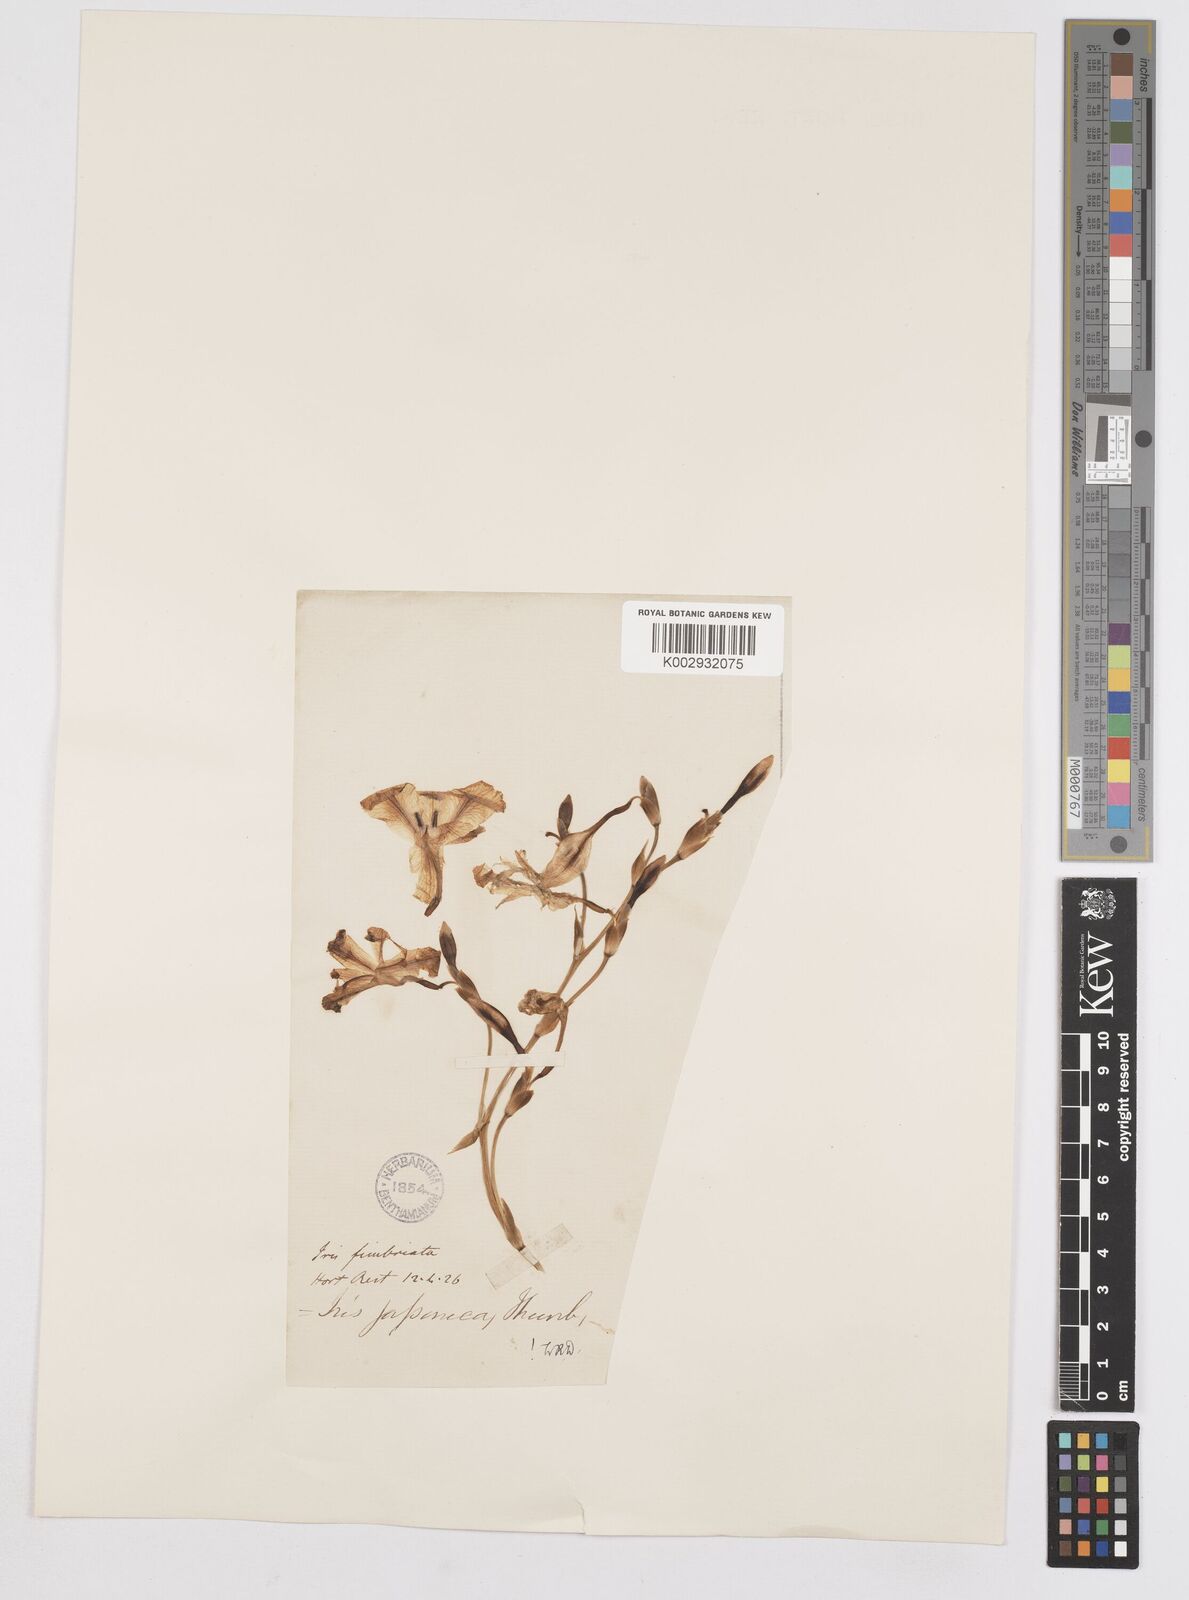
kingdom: Plantae
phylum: Tracheophyta
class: Liliopsida
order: Asparagales
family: Iridaceae
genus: Iris
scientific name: Iris japonica
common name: Butterfly-flower
